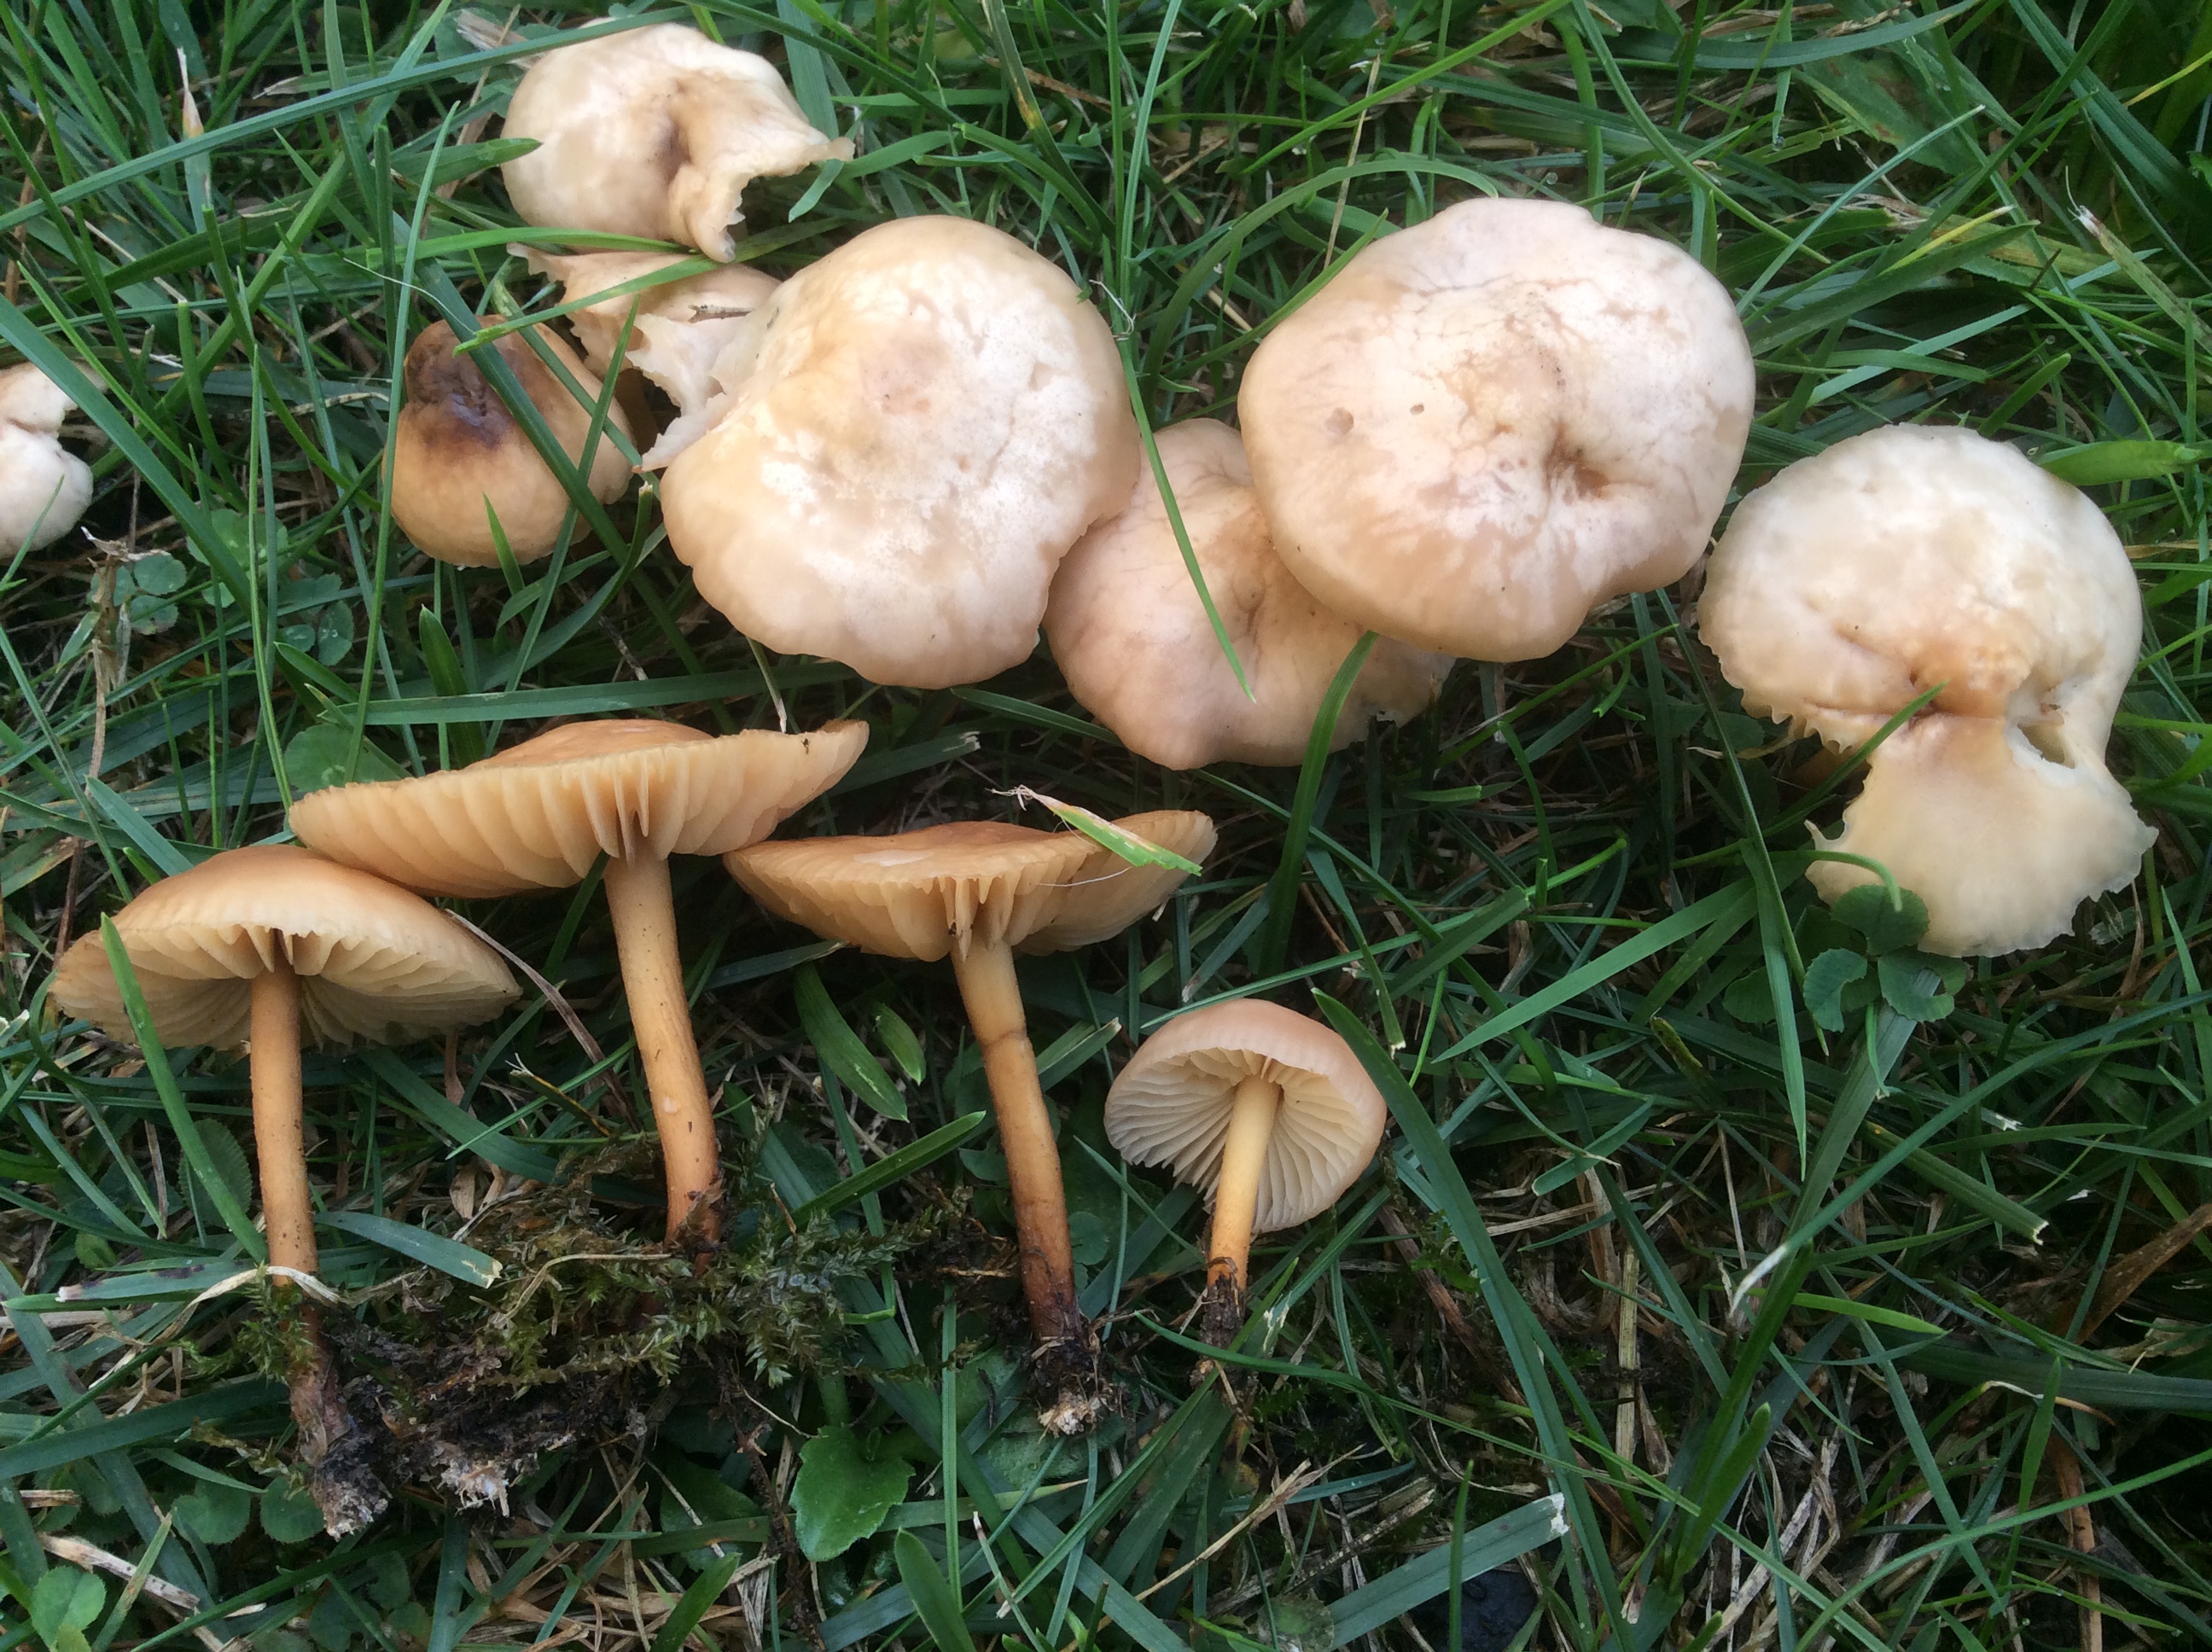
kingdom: Fungi
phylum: Basidiomycota
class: Agaricomycetes
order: Agaricales
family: Marasmiaceae
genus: Marasmius
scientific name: Marasmius oreades
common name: elledans-bruskhat
